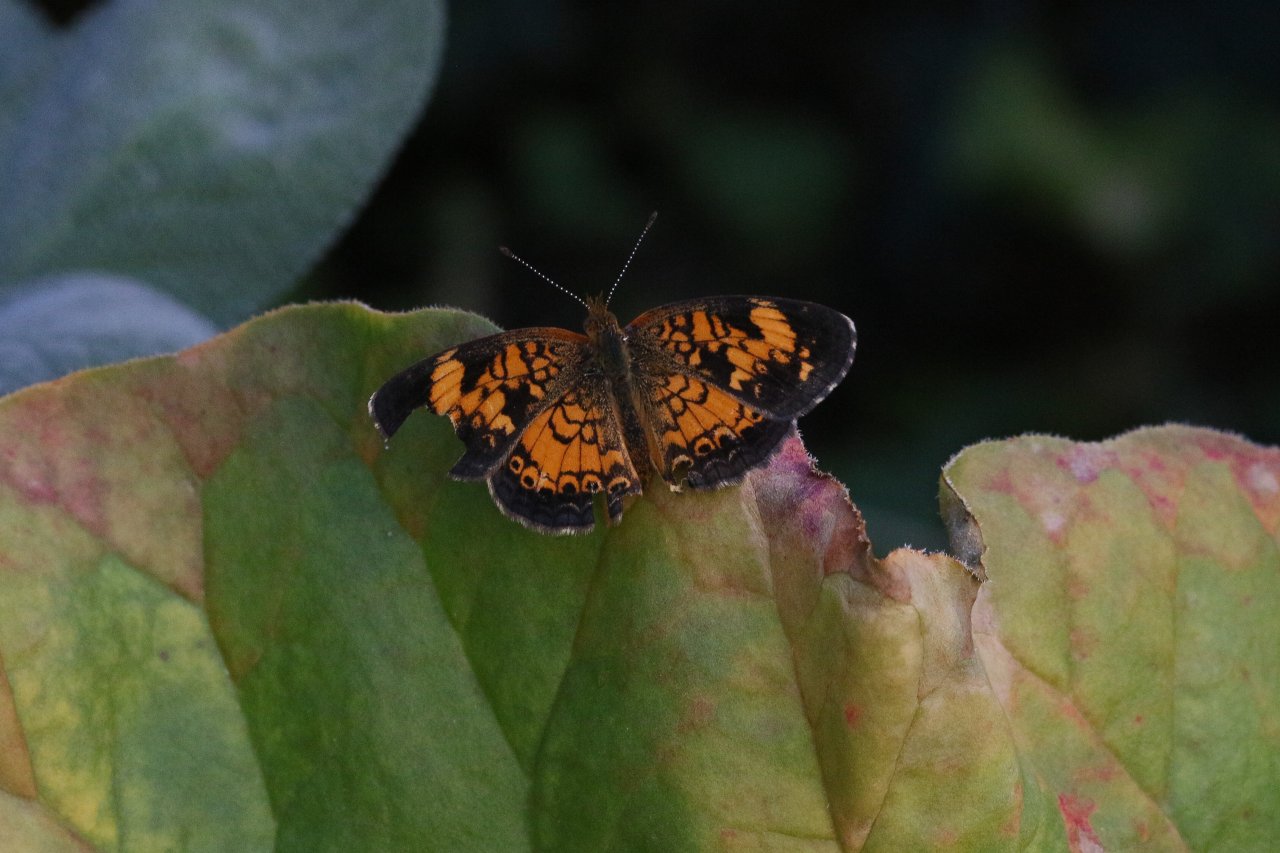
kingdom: Animalia
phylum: Arthropoda
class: Insecta
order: Lepidoptera
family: Nymphalidae
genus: Phyciodes
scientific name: Phyciodes tharos
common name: Pearl Crescent
